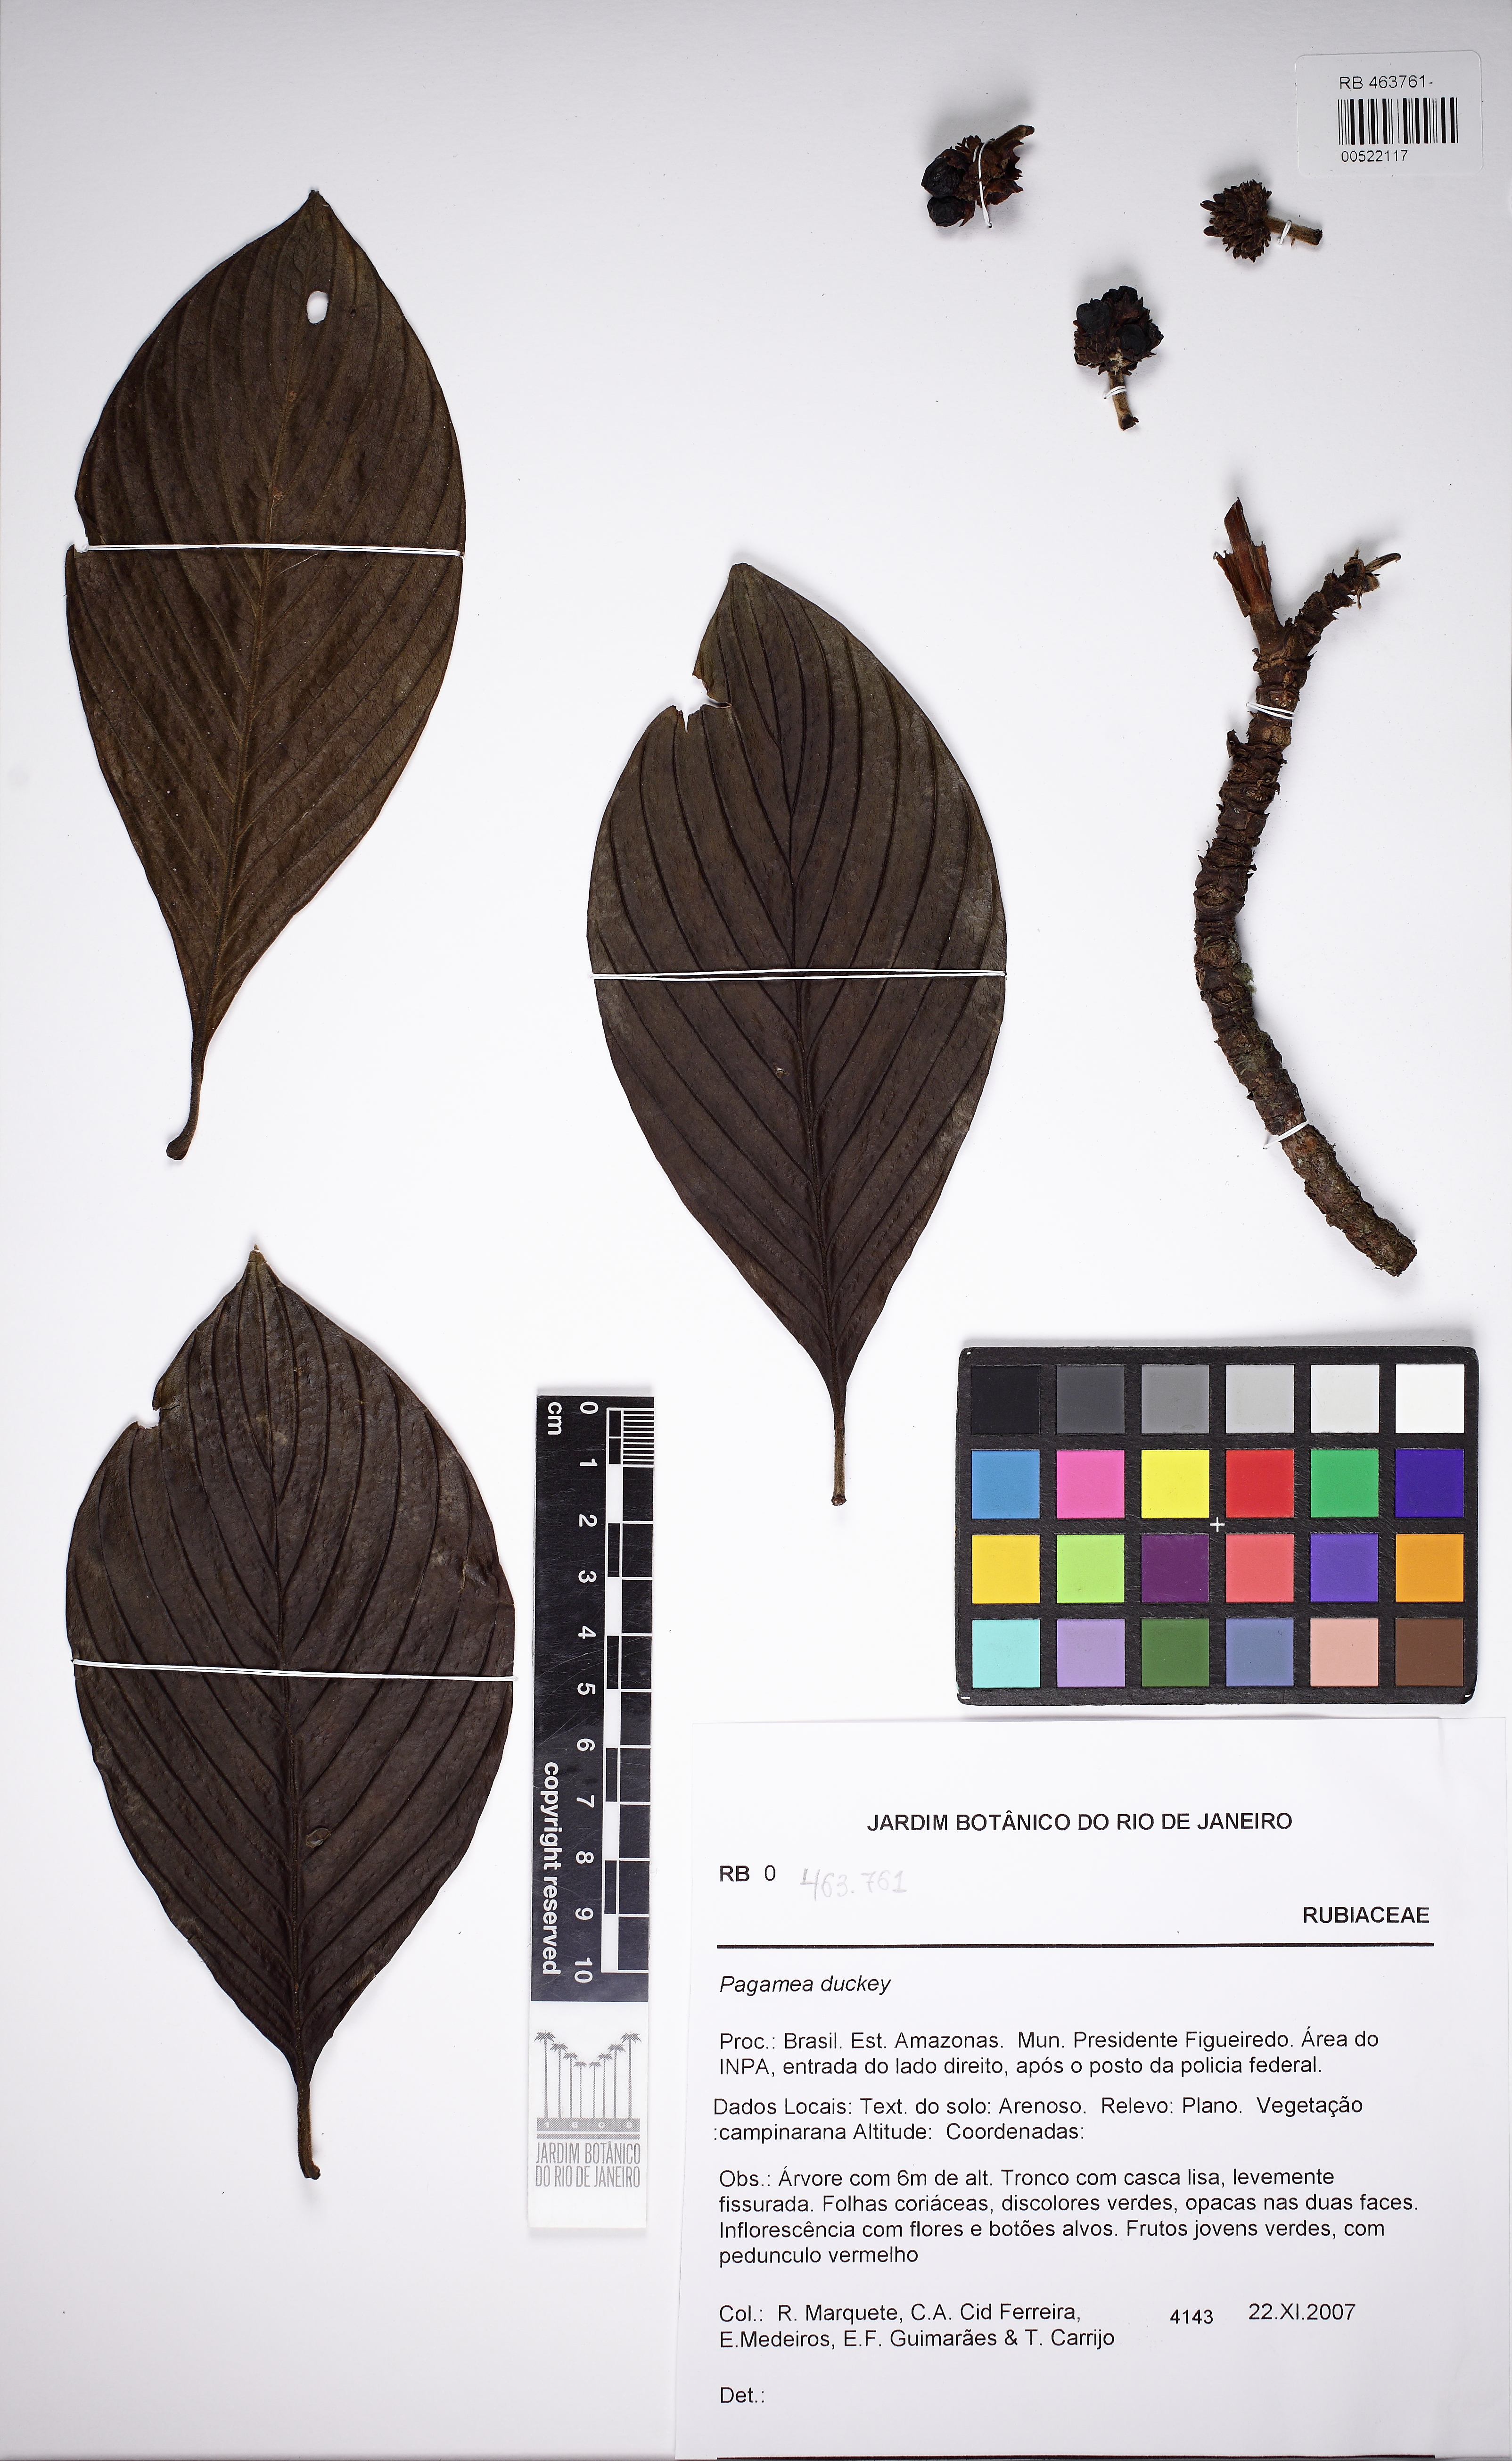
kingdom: Plantae
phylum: Tracheophyta
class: Magnoliopsida
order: Gentianales
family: Rubiaceae
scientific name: Rubiaceae
